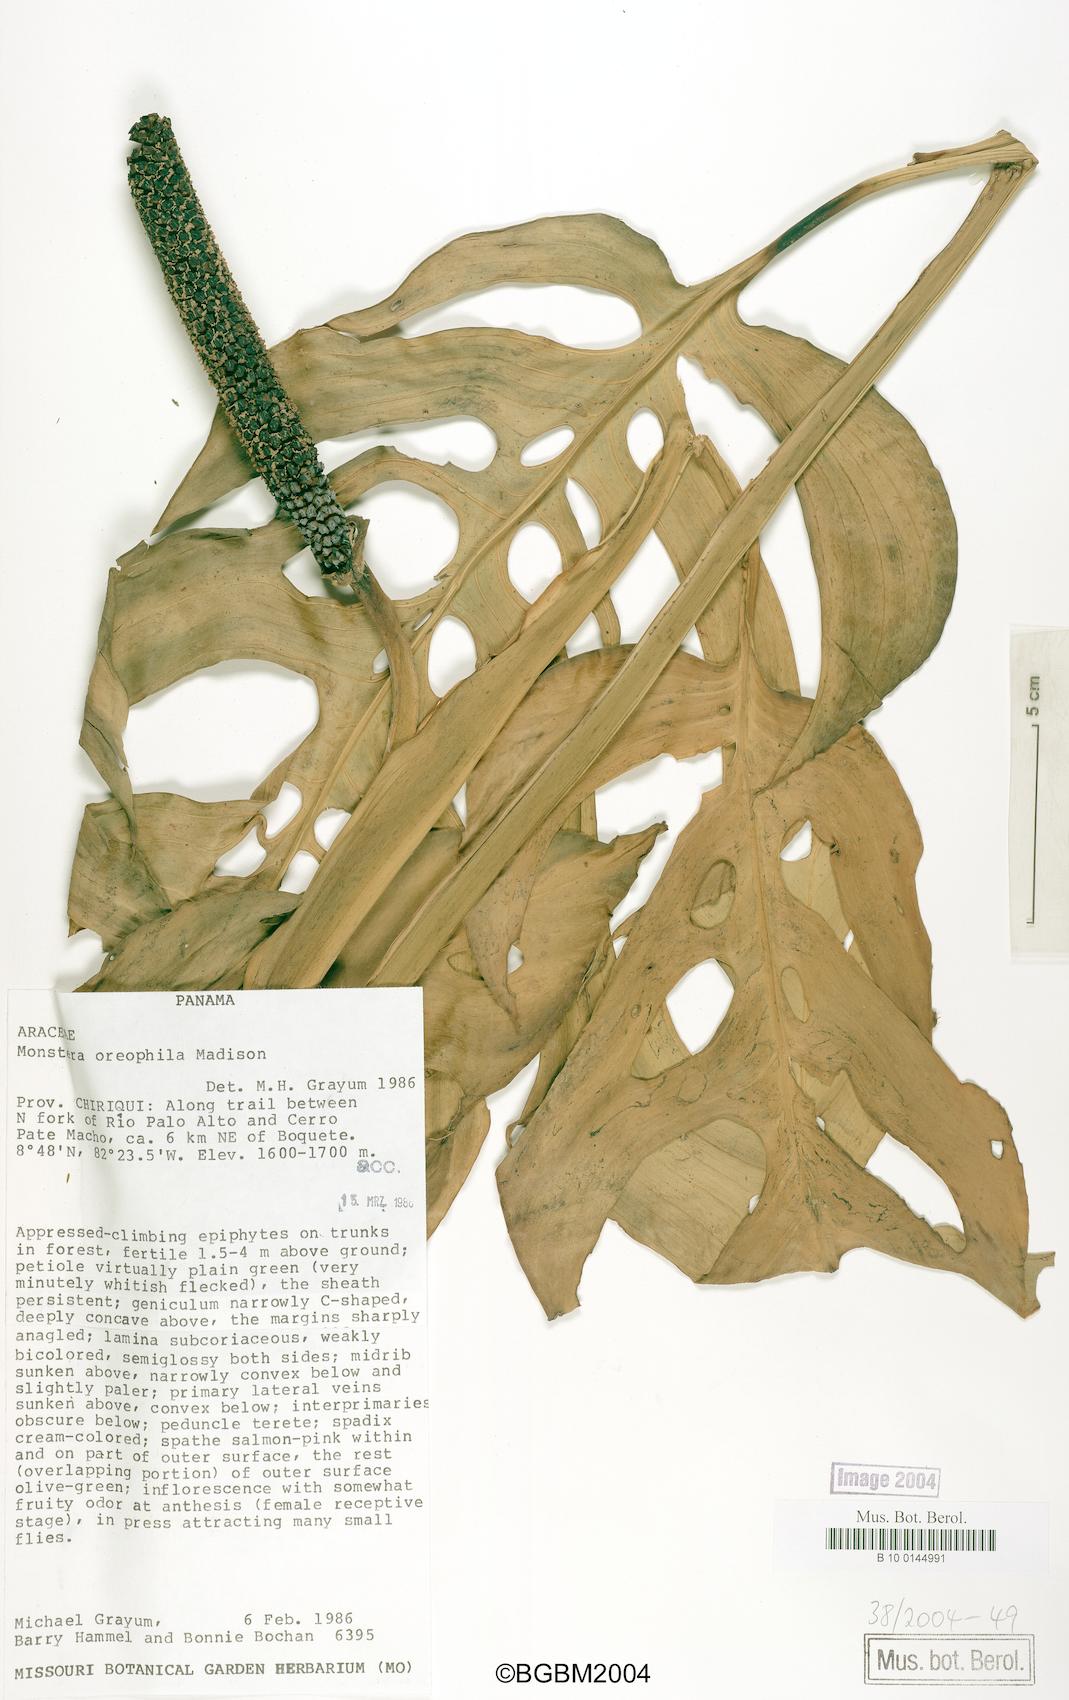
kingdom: Plantae
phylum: Tracheophyta
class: Liliopsida
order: Alismatales
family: Araceae
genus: Monstera
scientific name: Monstera oreophila
